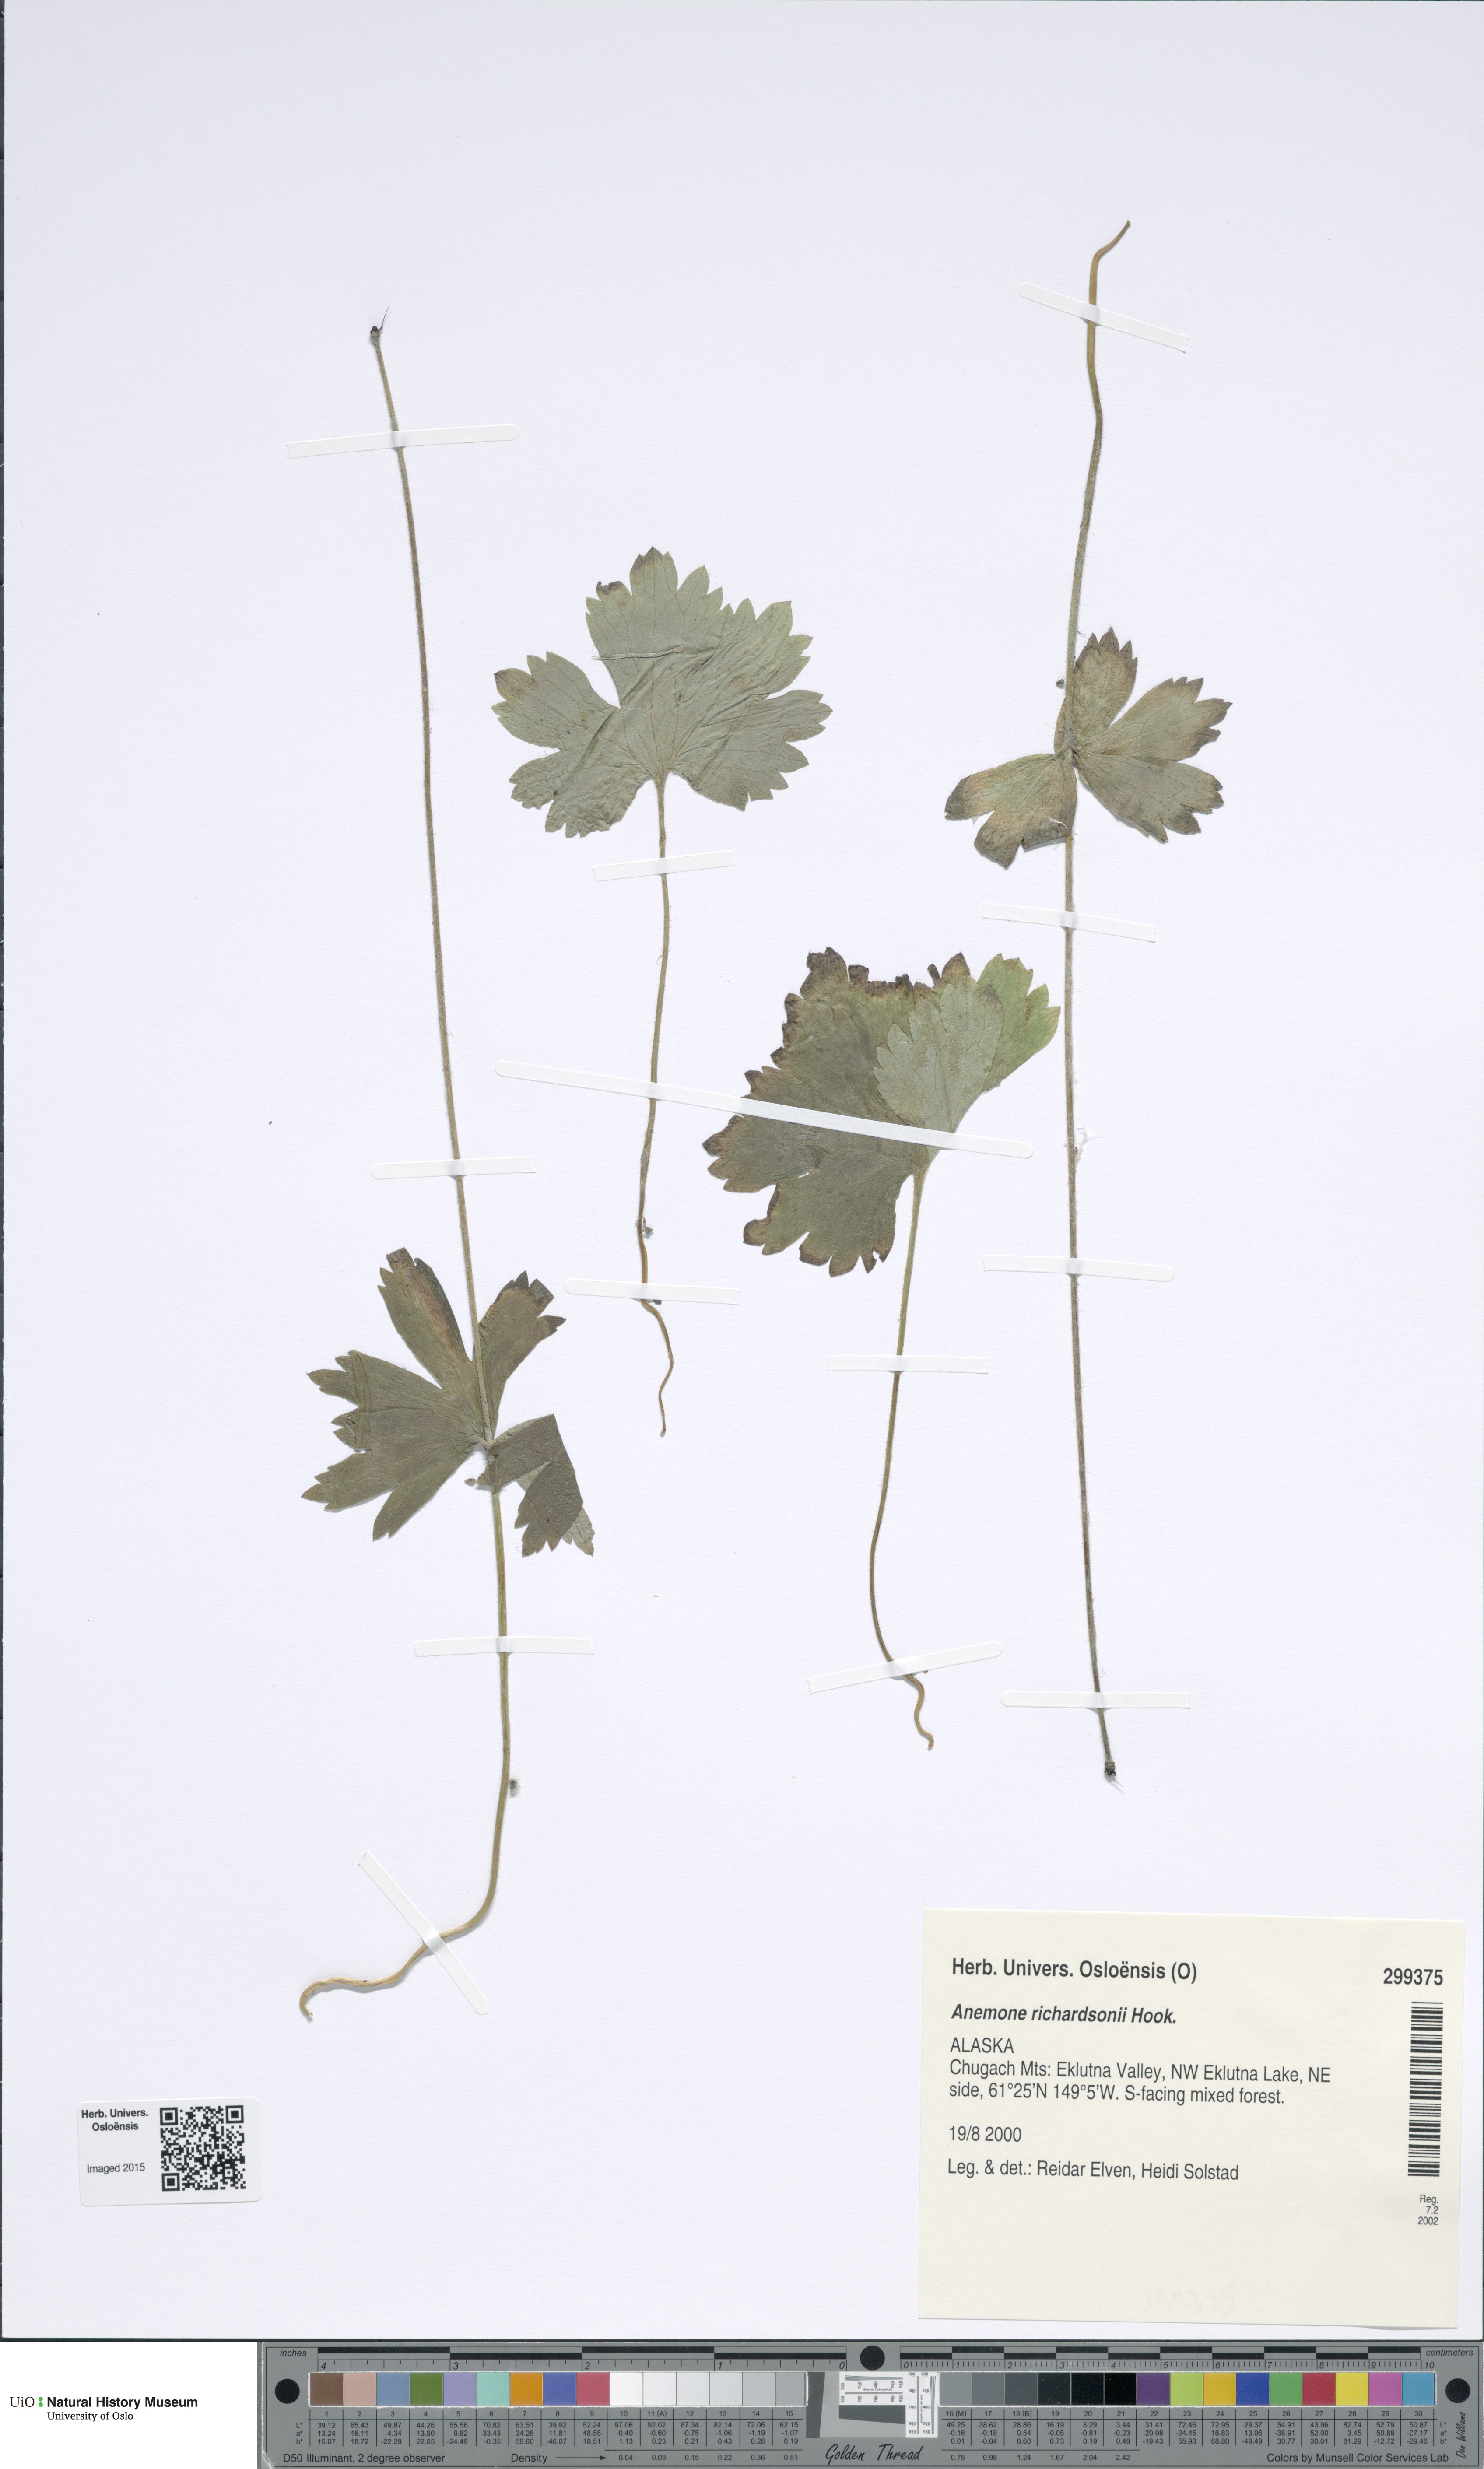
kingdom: Plantae
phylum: Tracheophyta
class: Magnoliopsida
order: Ranunculales
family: Ranunculaceae
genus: Anemonastrum
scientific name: Anemonastrum richardsonii
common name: Richardson's anemone
